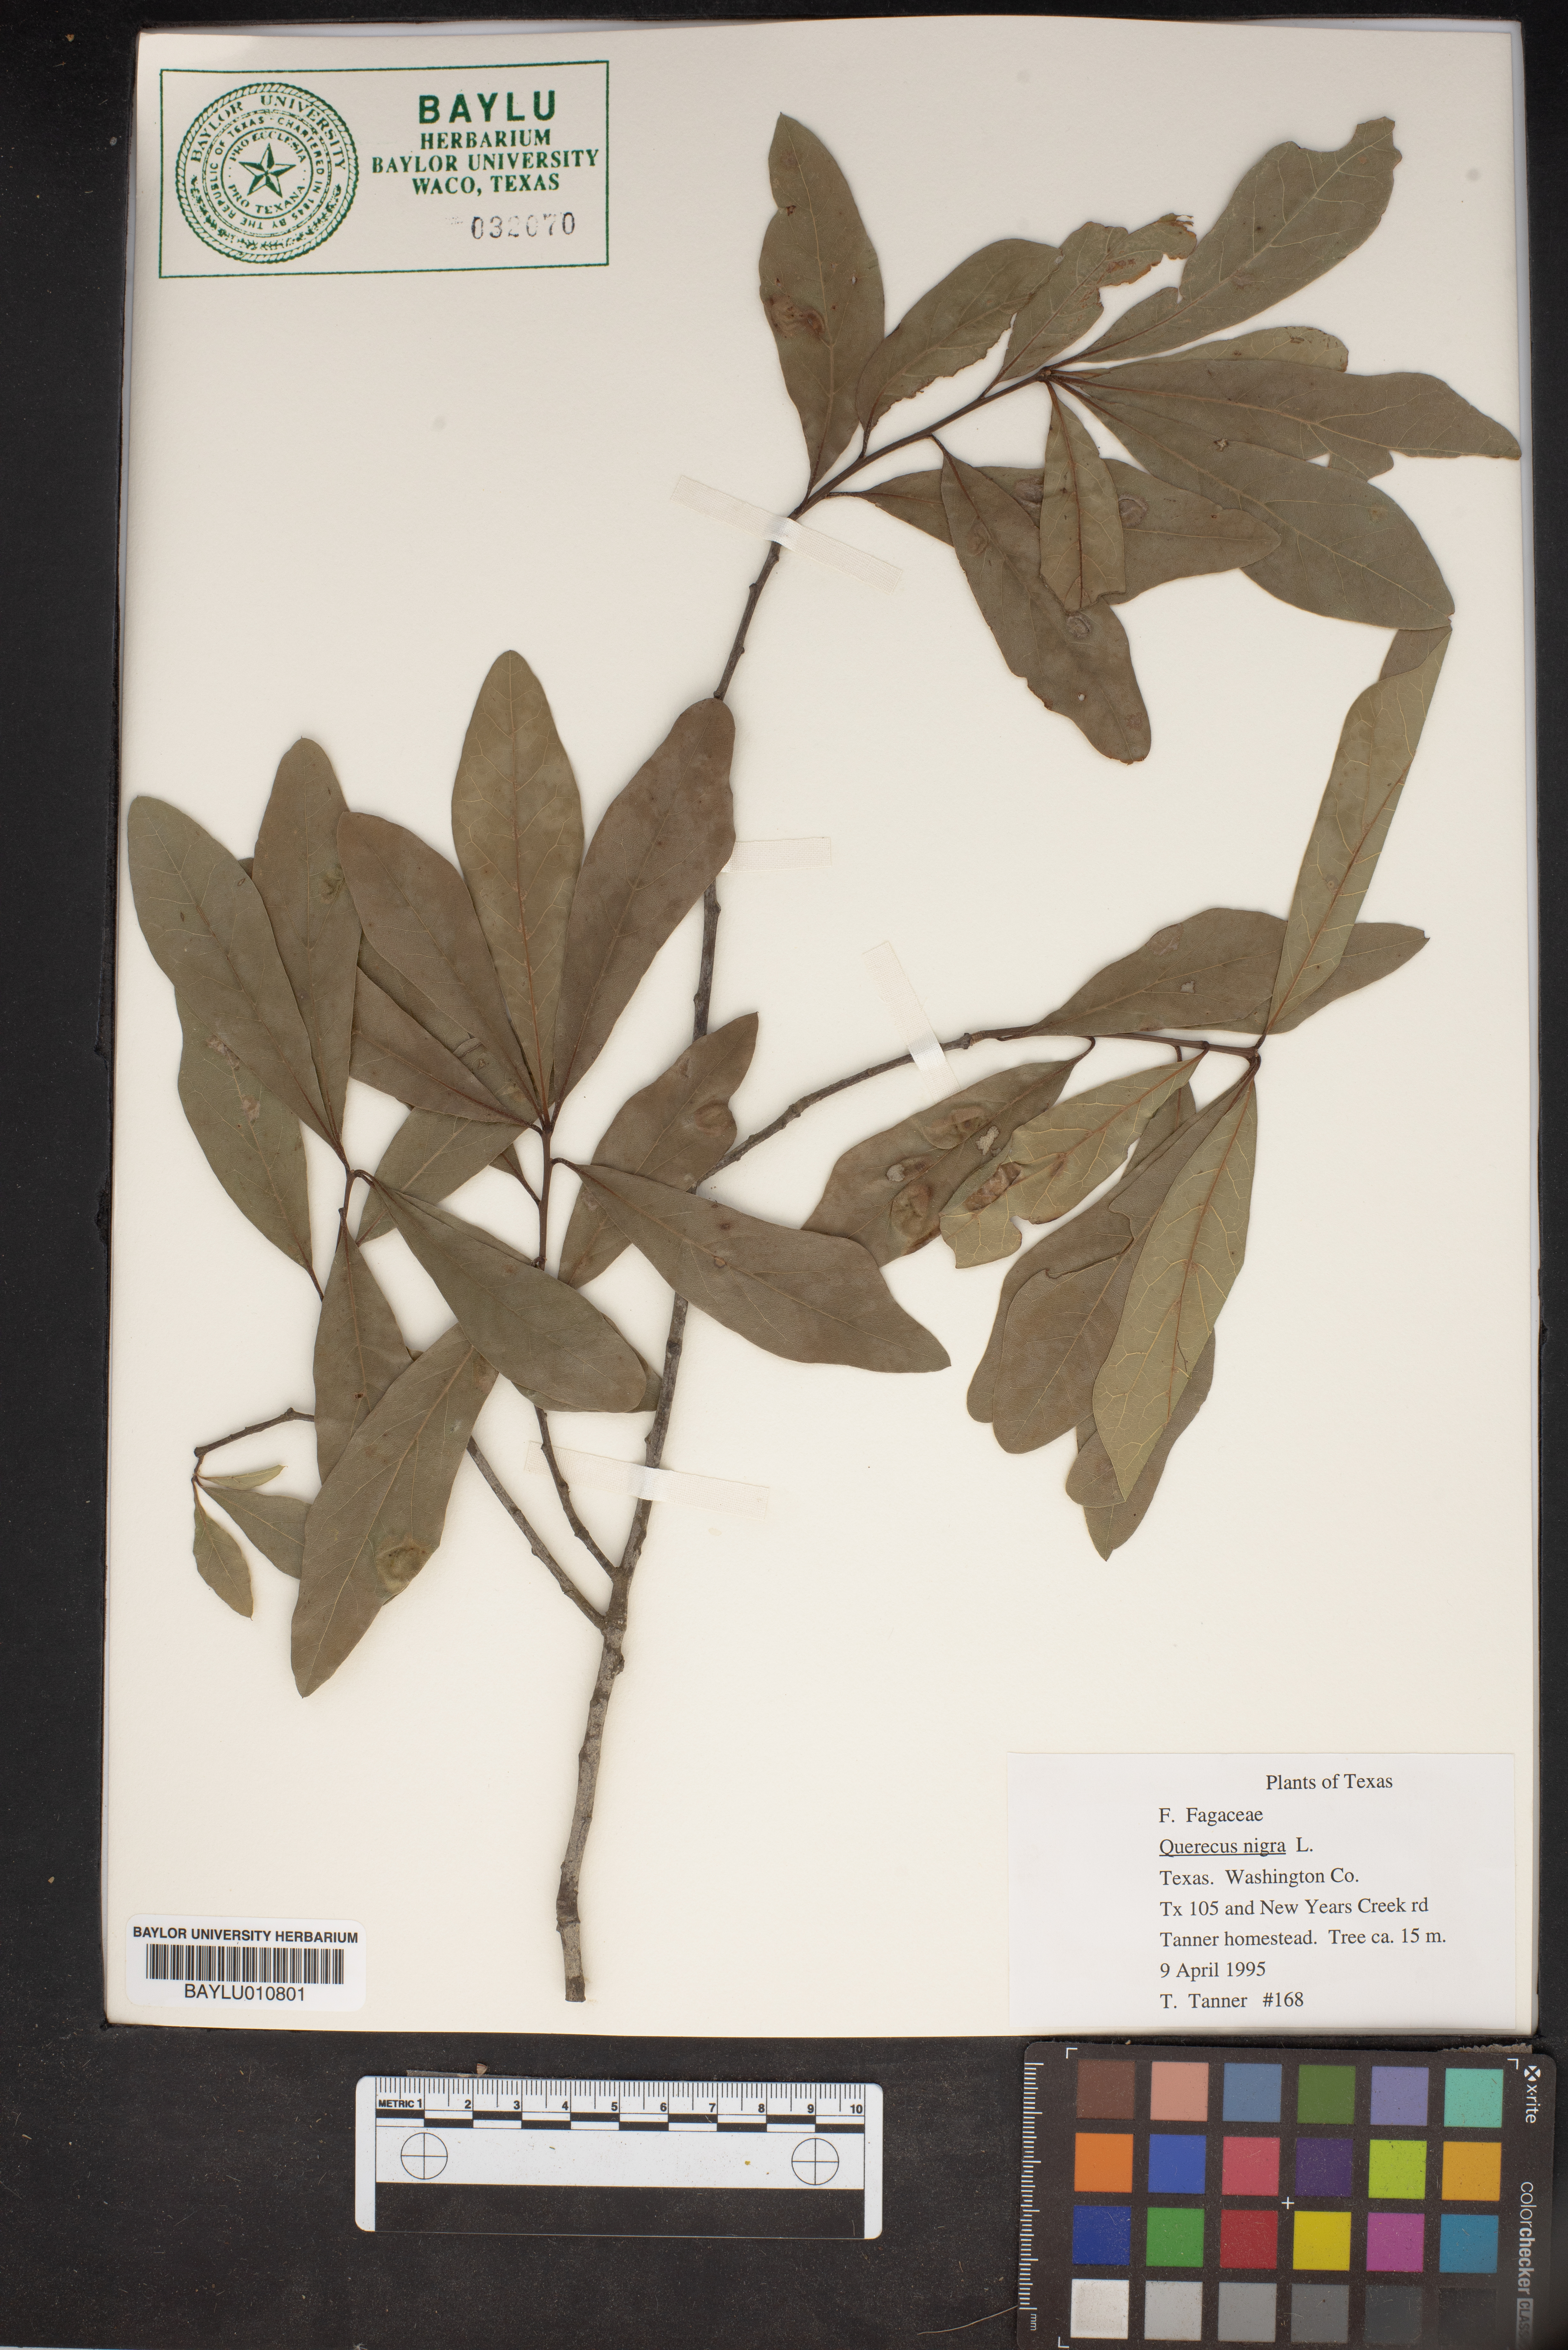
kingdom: Plantae
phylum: Tracheophyta
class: Magnoliopsida
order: Fagales
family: Fagaceae
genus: Quercus
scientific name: Quercus nigra
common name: Water oak
